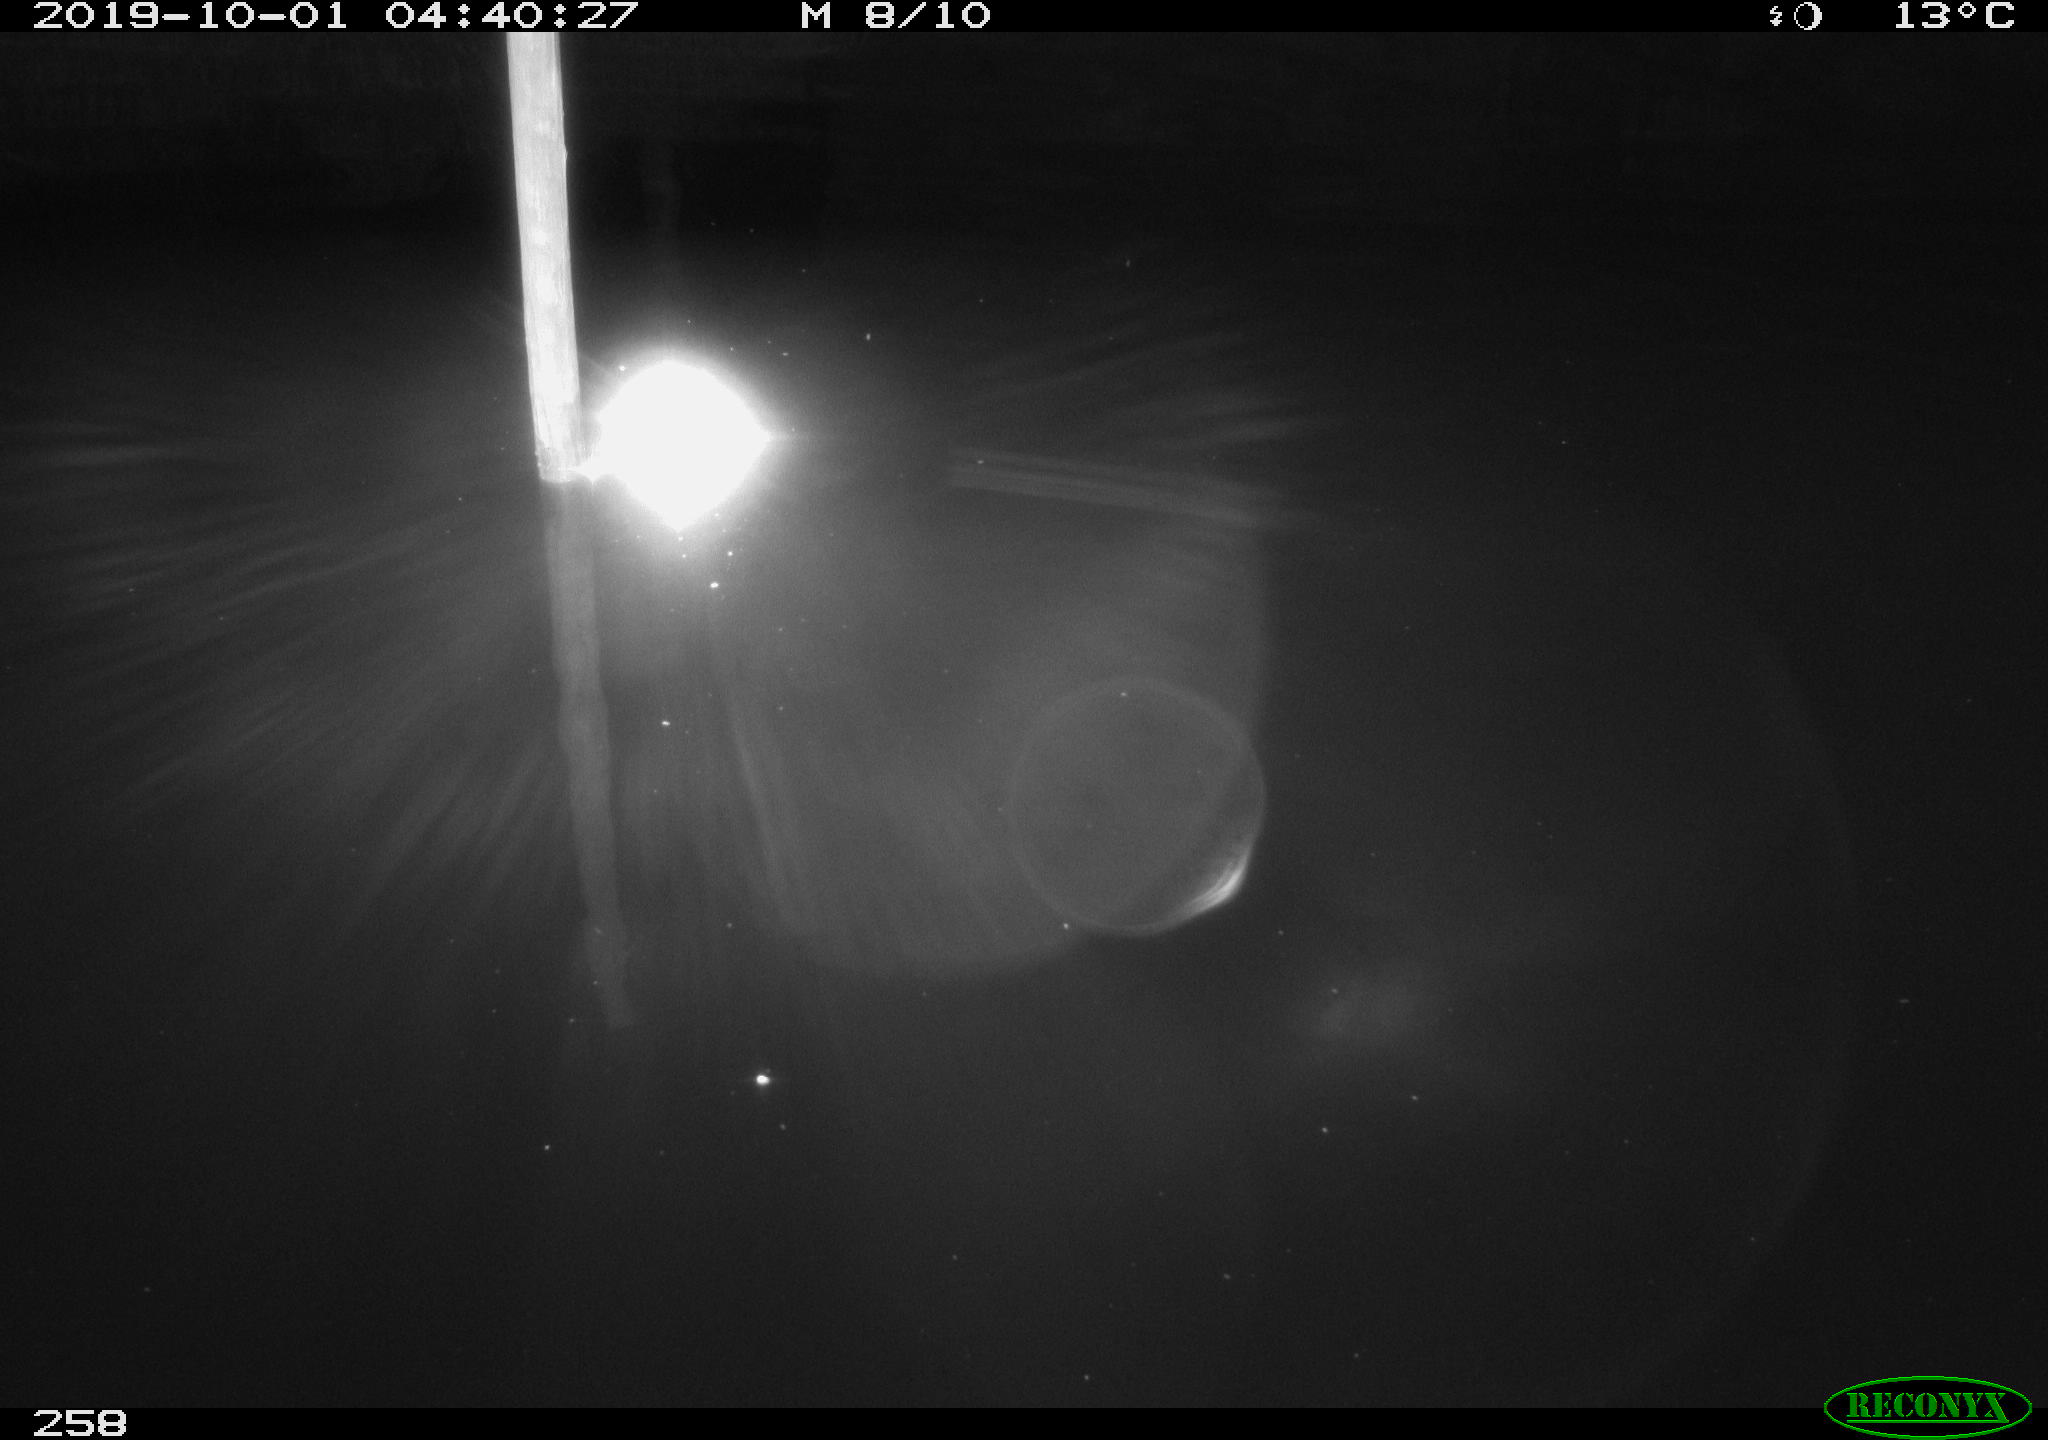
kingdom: Animalia
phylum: Chordata
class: Aves
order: Anseriformes
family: Anatidae
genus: Anas
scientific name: Anas platyrhynchos
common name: Mallard
